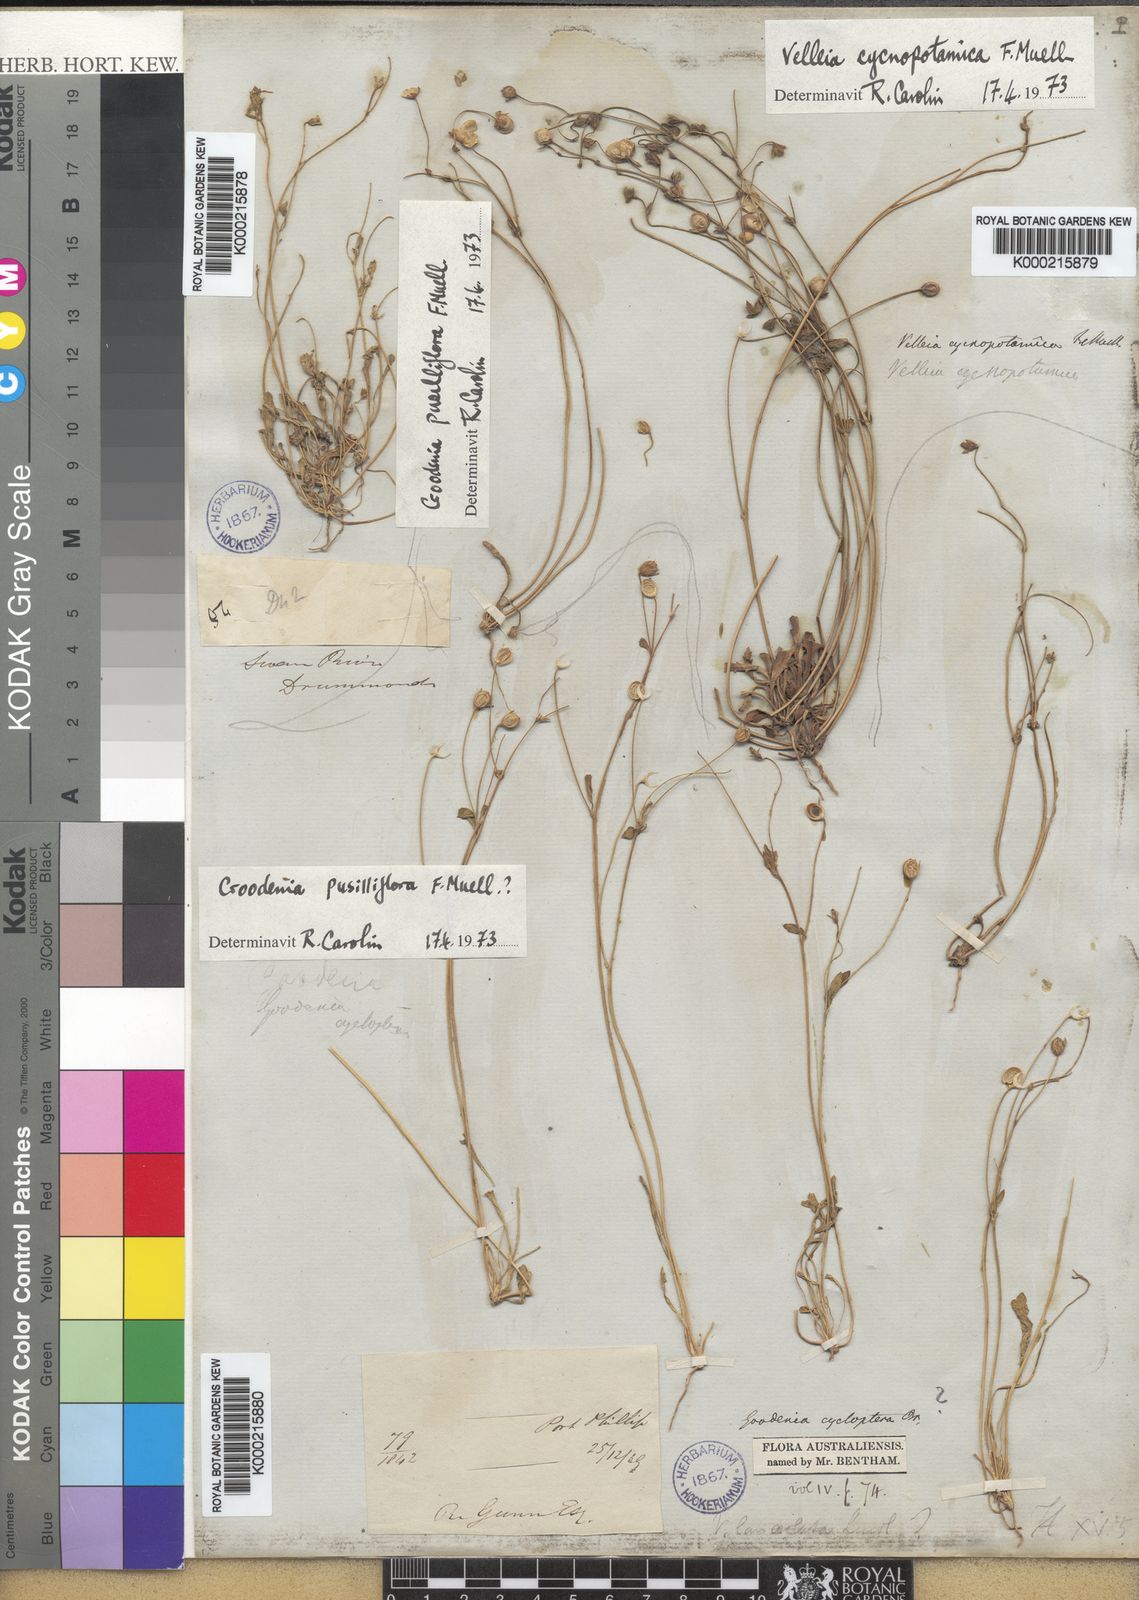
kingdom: Plantae
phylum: Tracheophyta
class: Magnoliopsida
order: Asterales
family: Goodeniaceae
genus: Goodenia
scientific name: Goodenia pusilliflora
